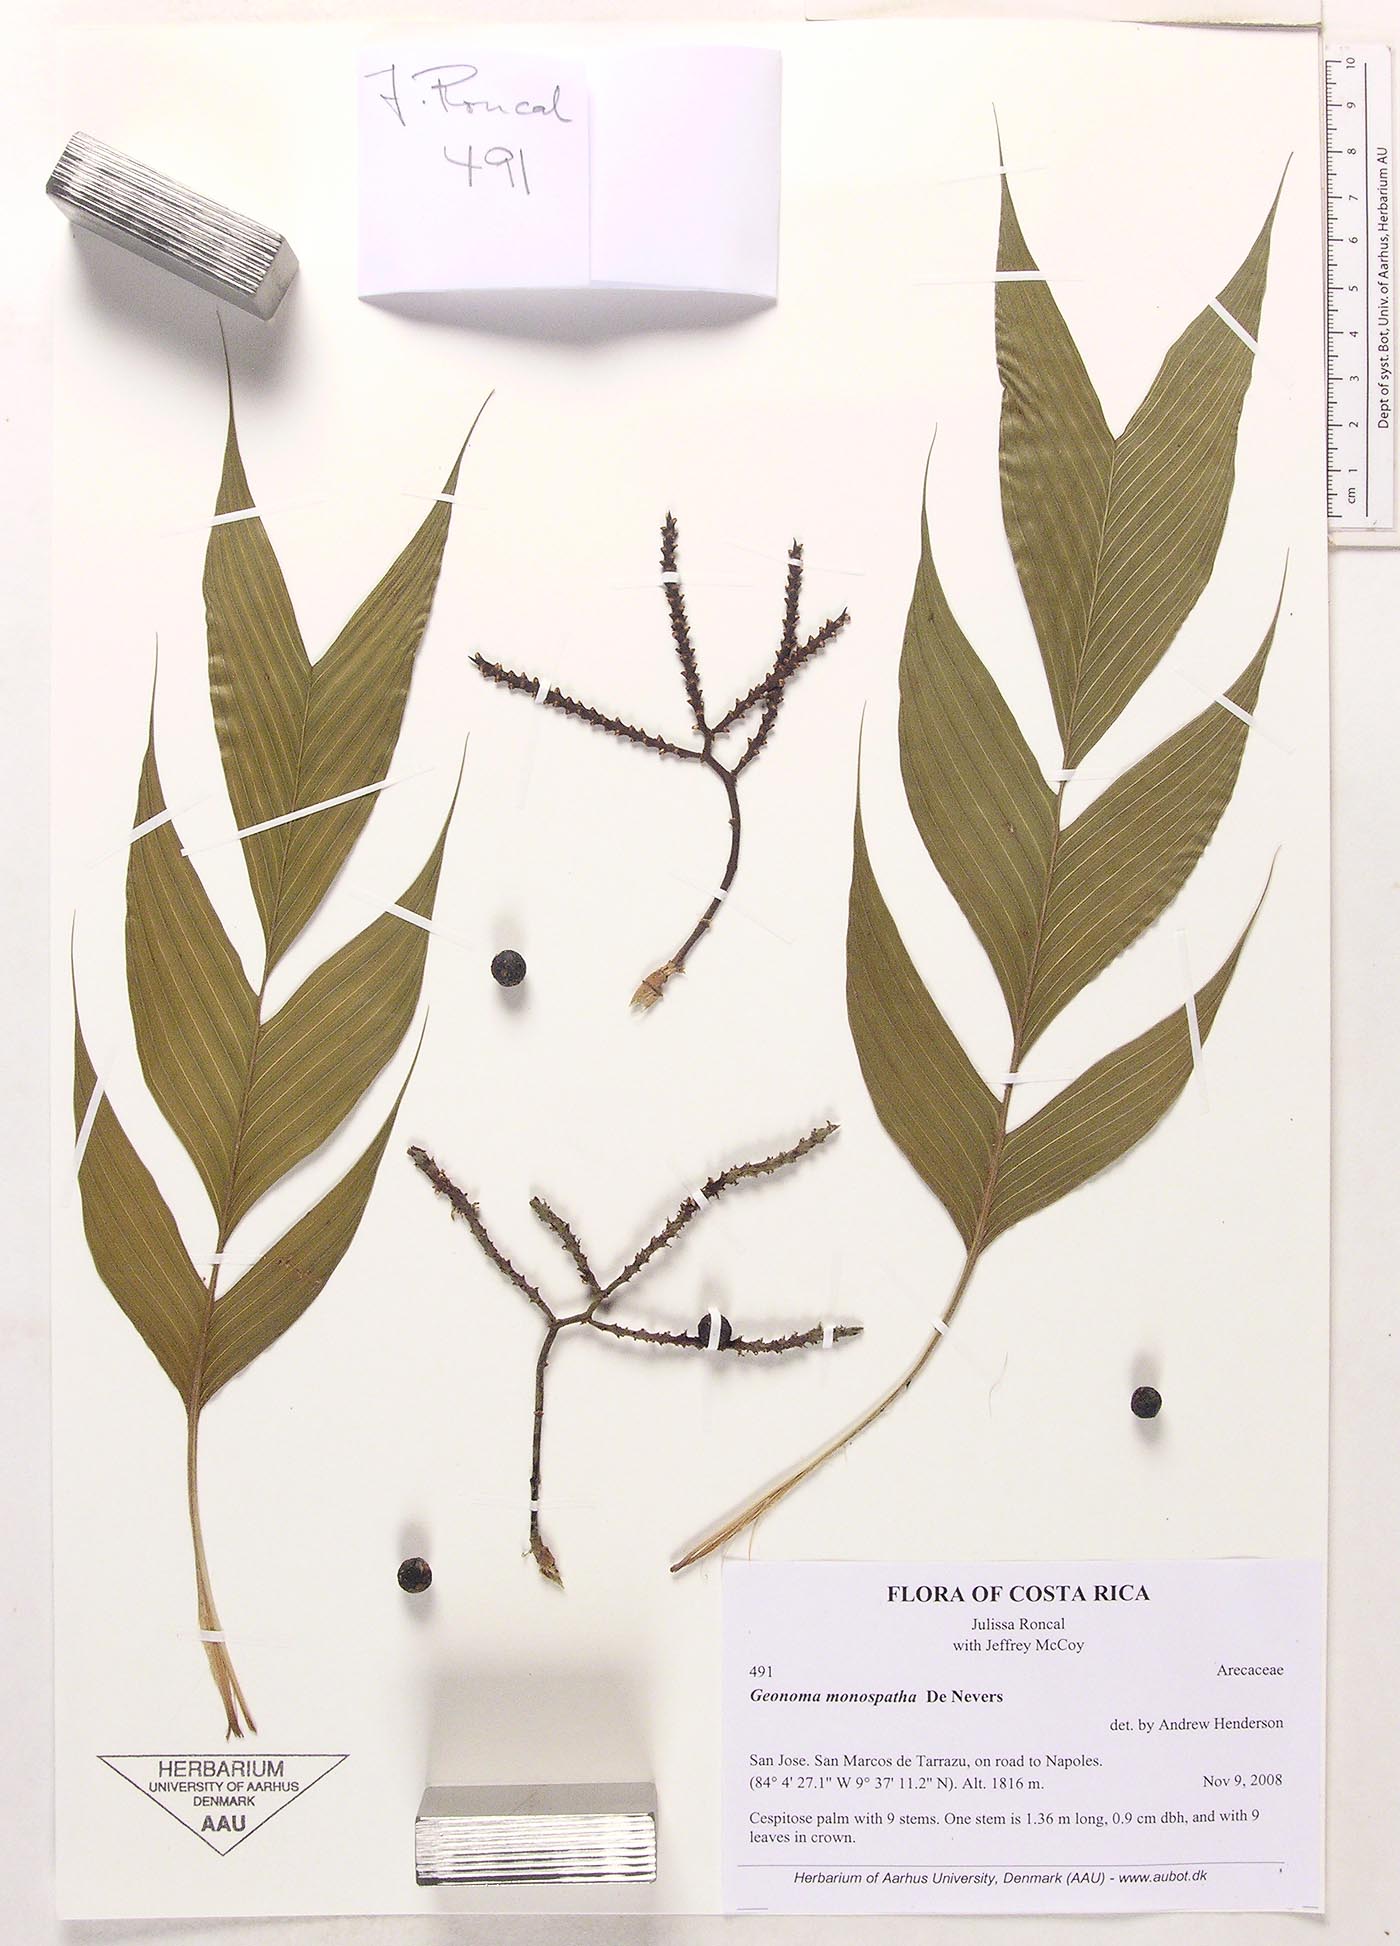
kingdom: Plantae
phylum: Tracheophyta
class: Liliopsida
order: Arecales
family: Arecaceae
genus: Geonoma
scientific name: Geonoma monospatha
